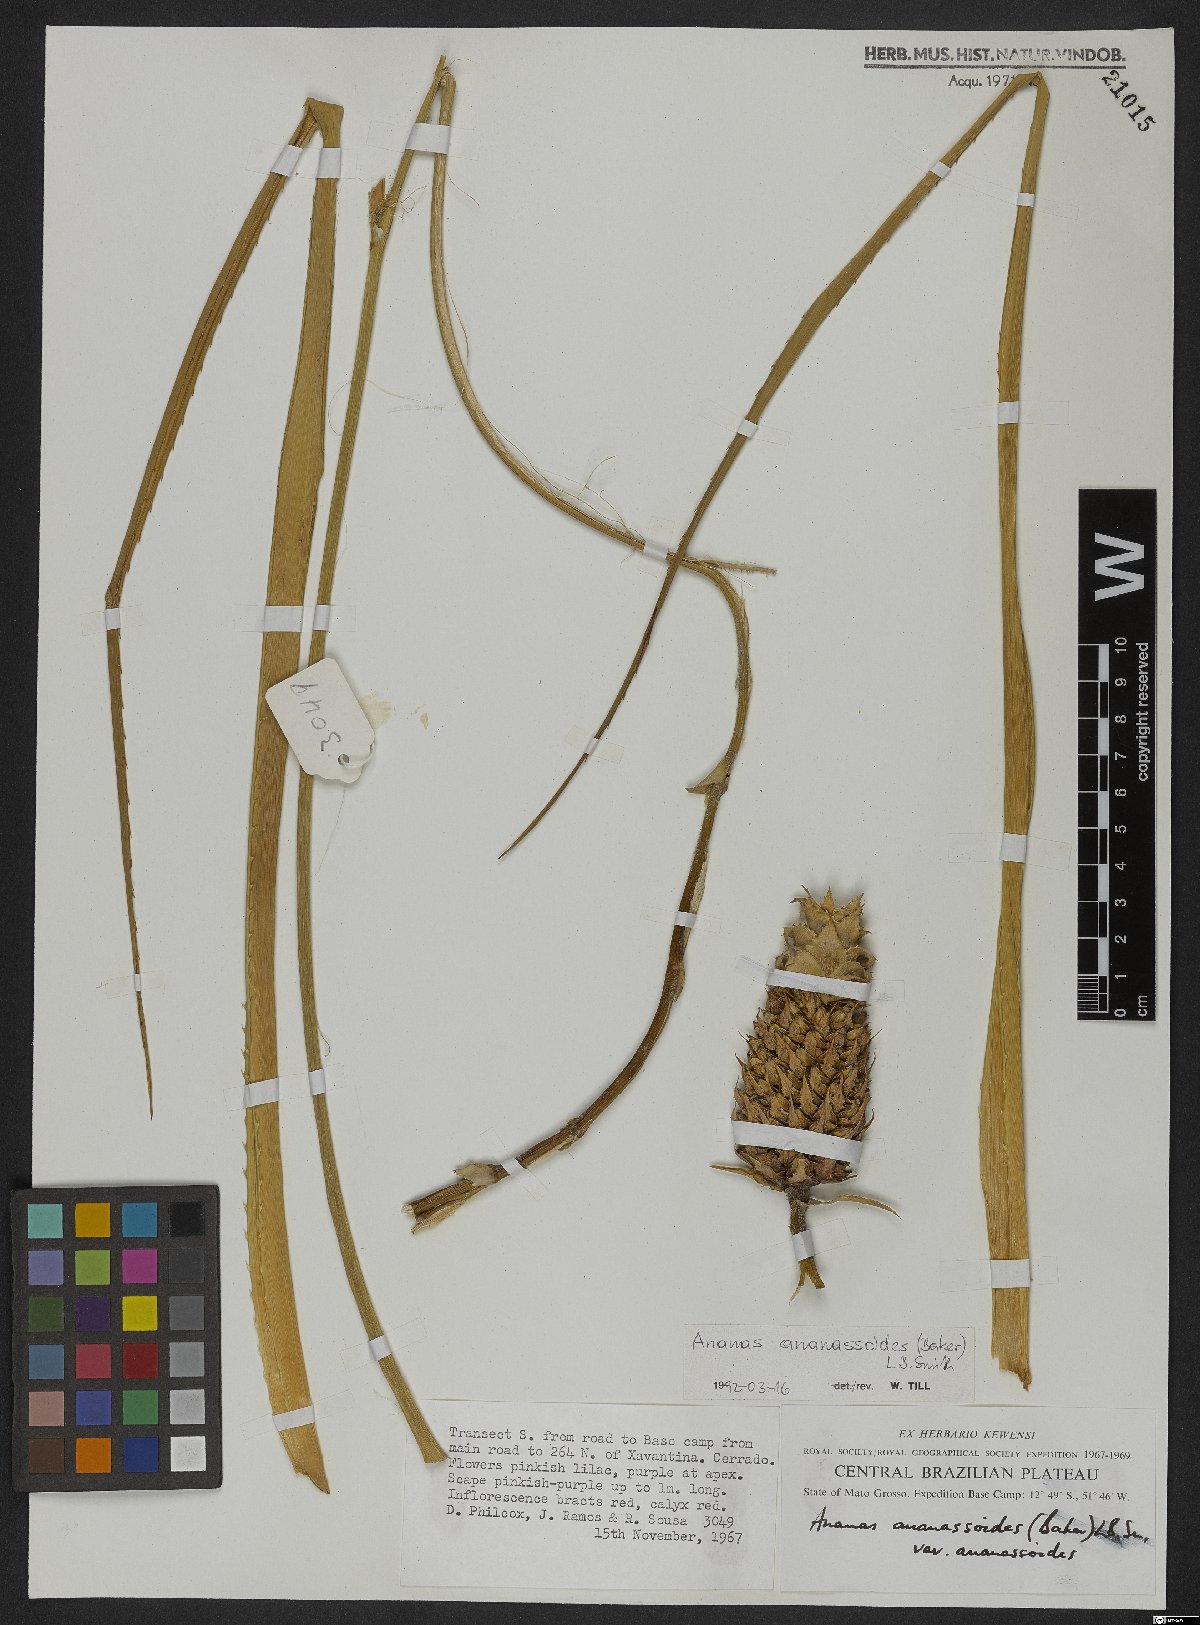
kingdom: Plantae
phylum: Tracheophyta
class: Liliopsida
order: Poales
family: Bromeliaceae
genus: Ananas
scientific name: Ananas comosus
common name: Pineapple
